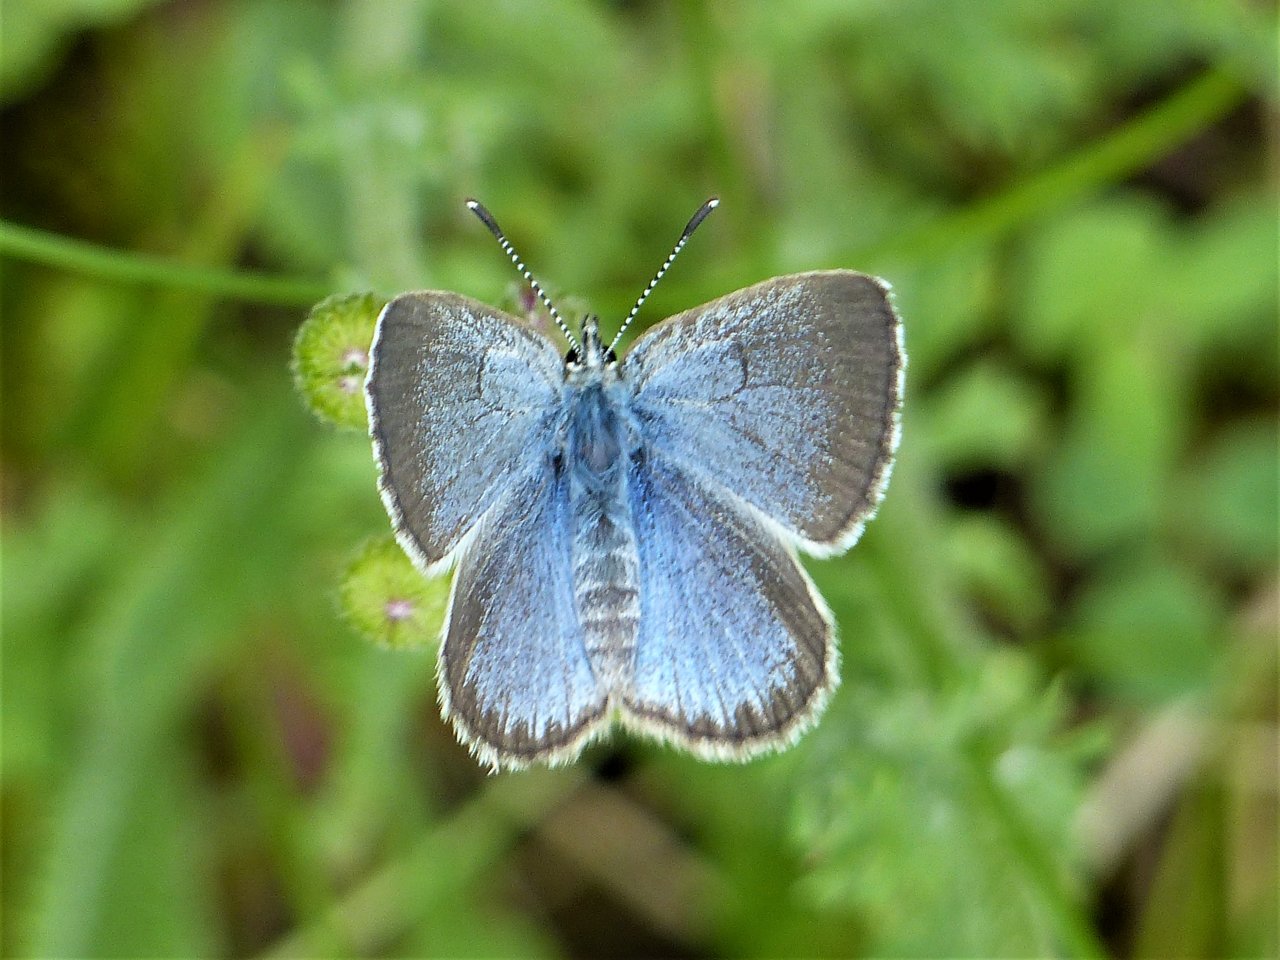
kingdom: Animalia
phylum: Arthropoda
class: Insecta
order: Lepidoptera
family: Lycaenidae
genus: Glaucopsyche
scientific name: Glaucopsyche lygdamus
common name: Silvery Blue
